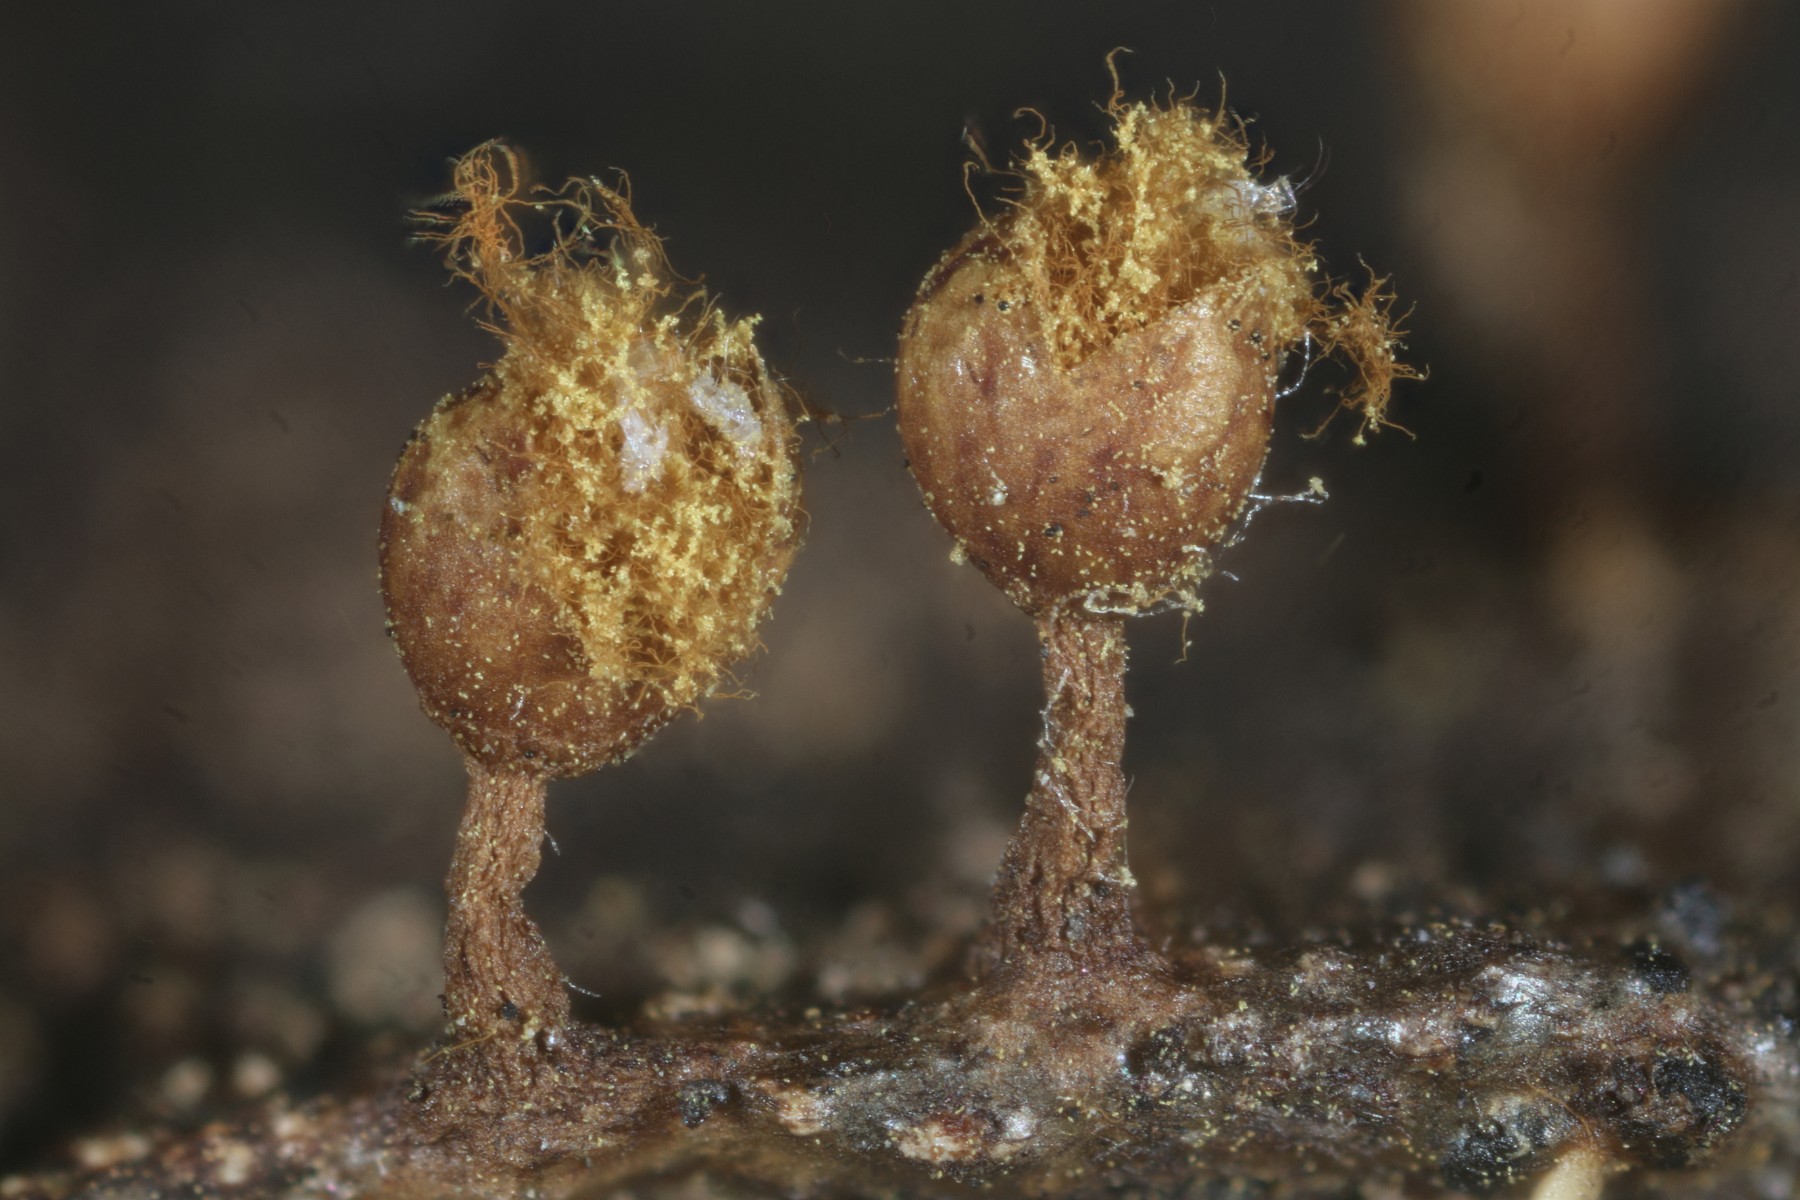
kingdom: Protozoa
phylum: Mycetozoa
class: Myxomycetes
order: Trichiales
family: Trichiaceae
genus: Trichia
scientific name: Trichia ambigua
